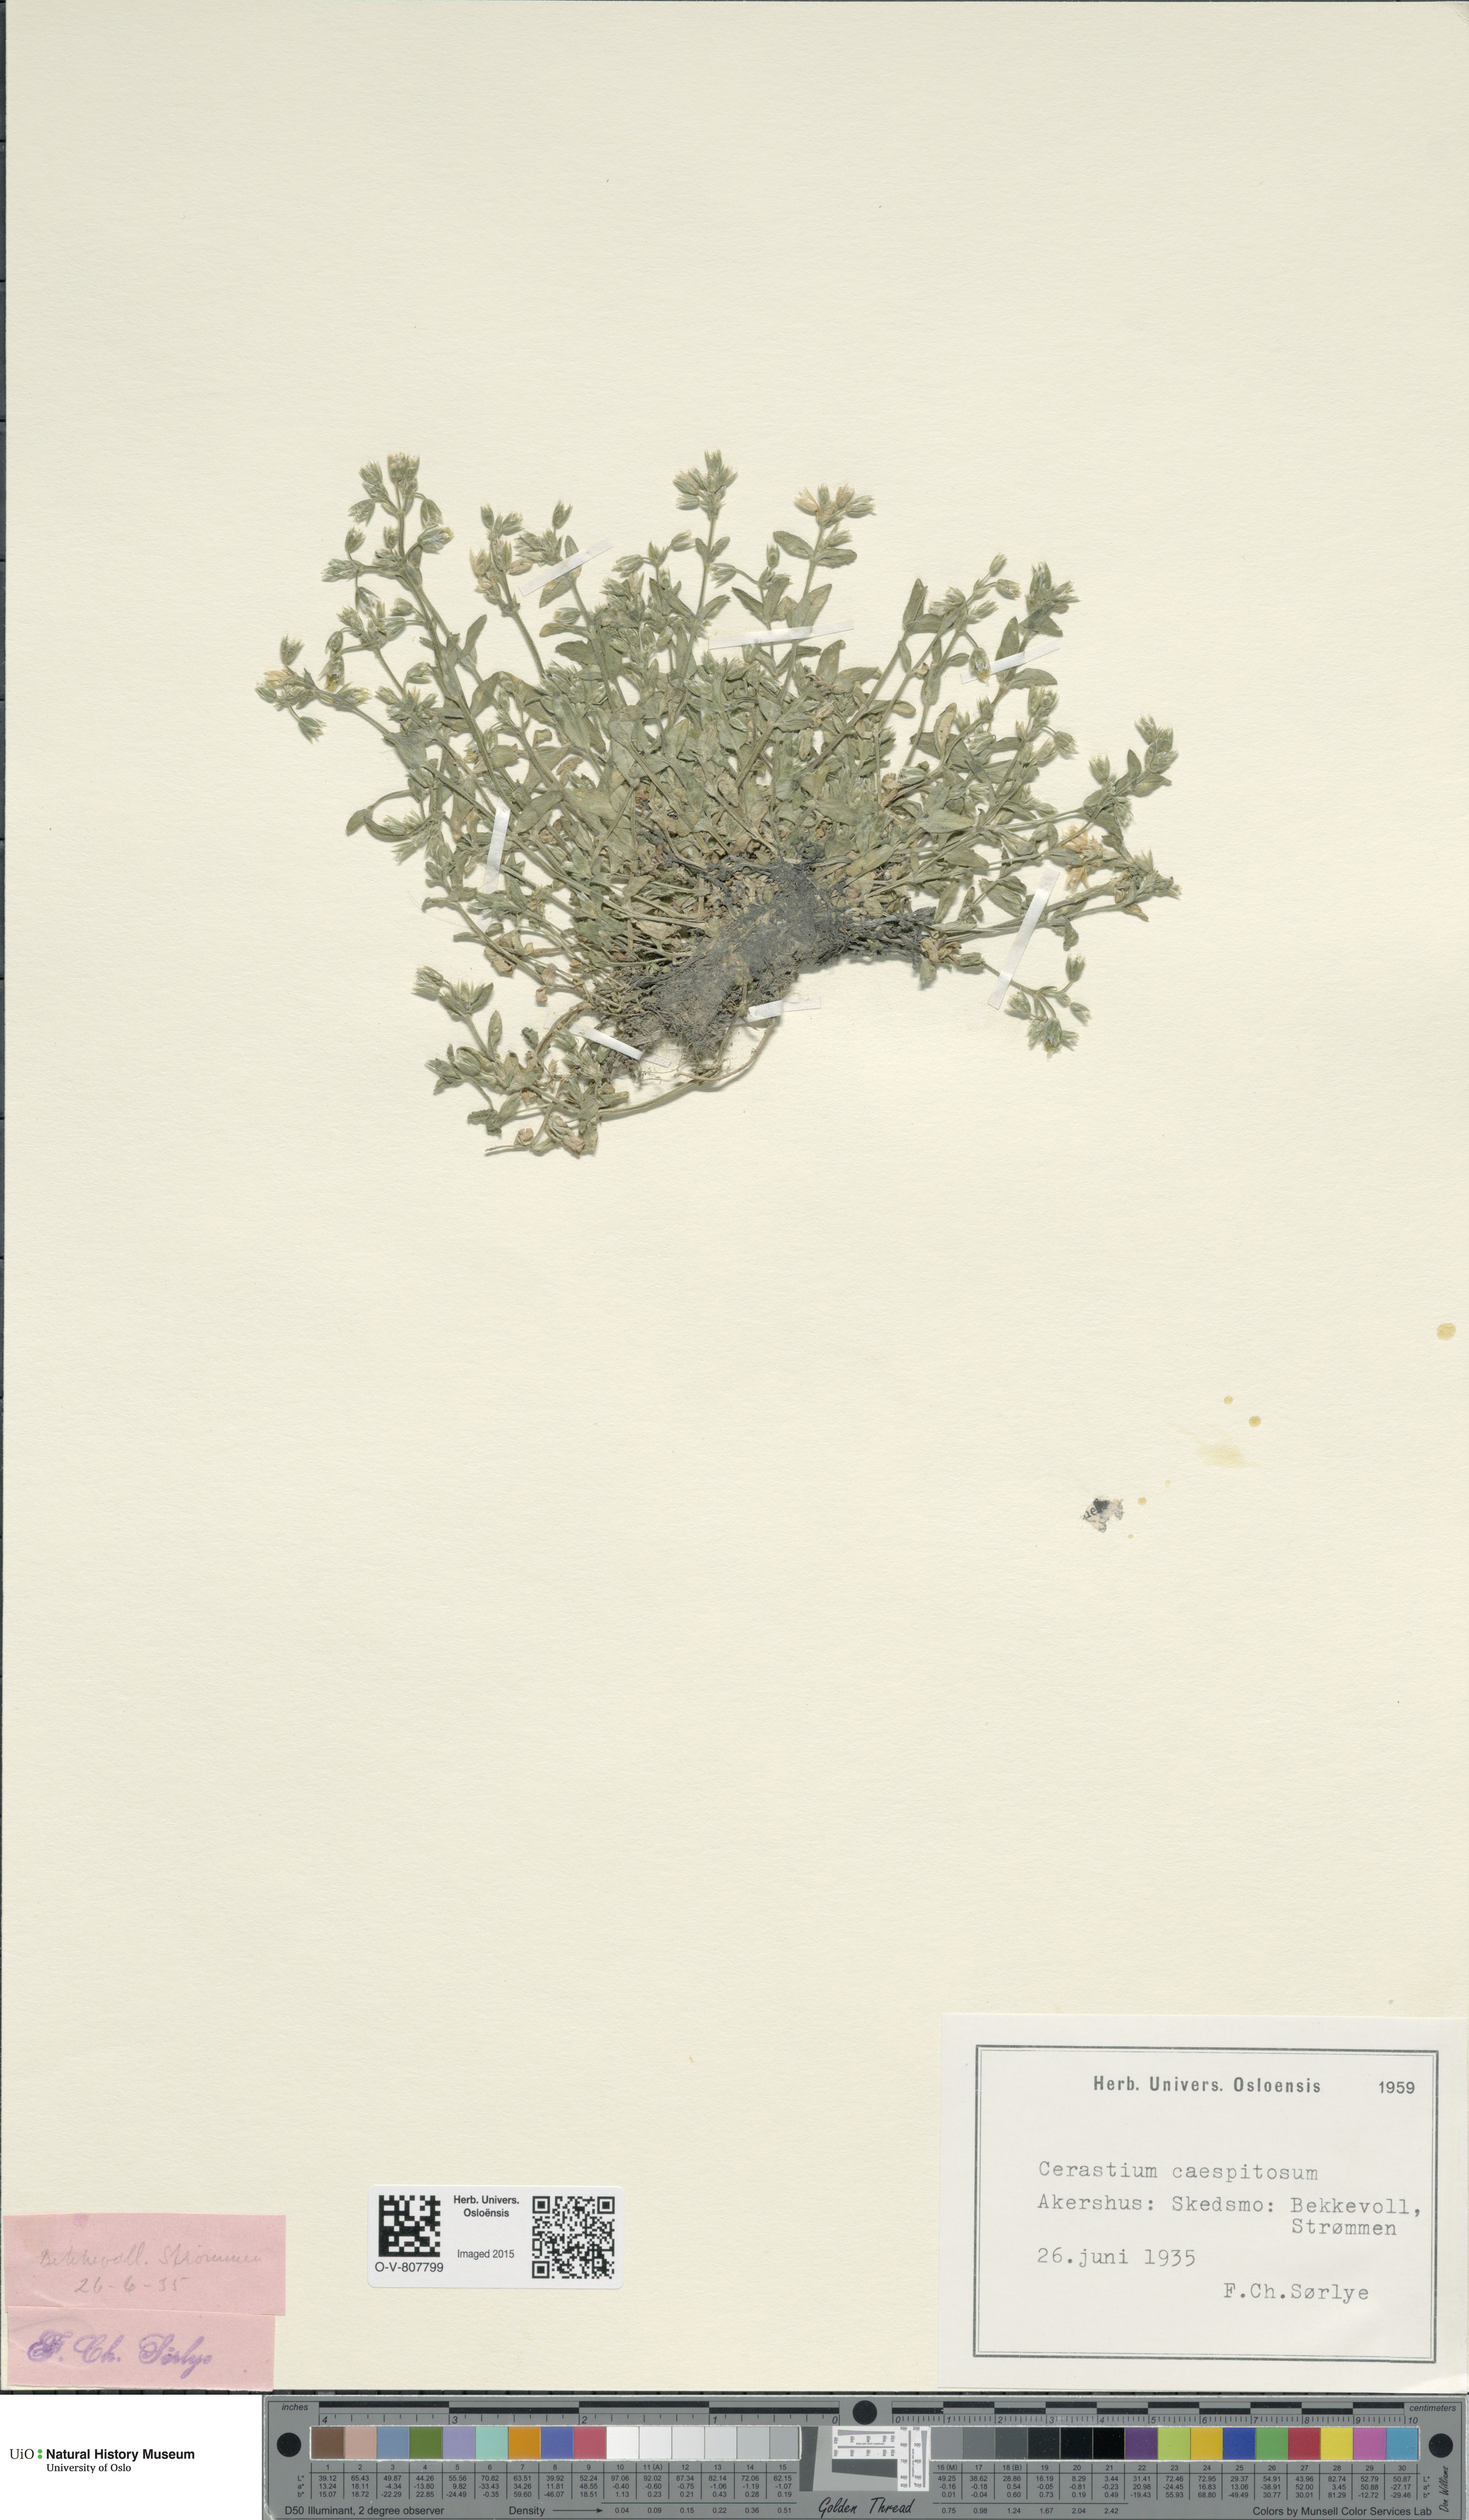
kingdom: Plantae
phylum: Tracheophyta
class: Magnoliopsida
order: Caryophyllales
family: Caryophyllaceae
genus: Cerastium
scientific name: Cerastium holosteoides
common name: Big chickweed
